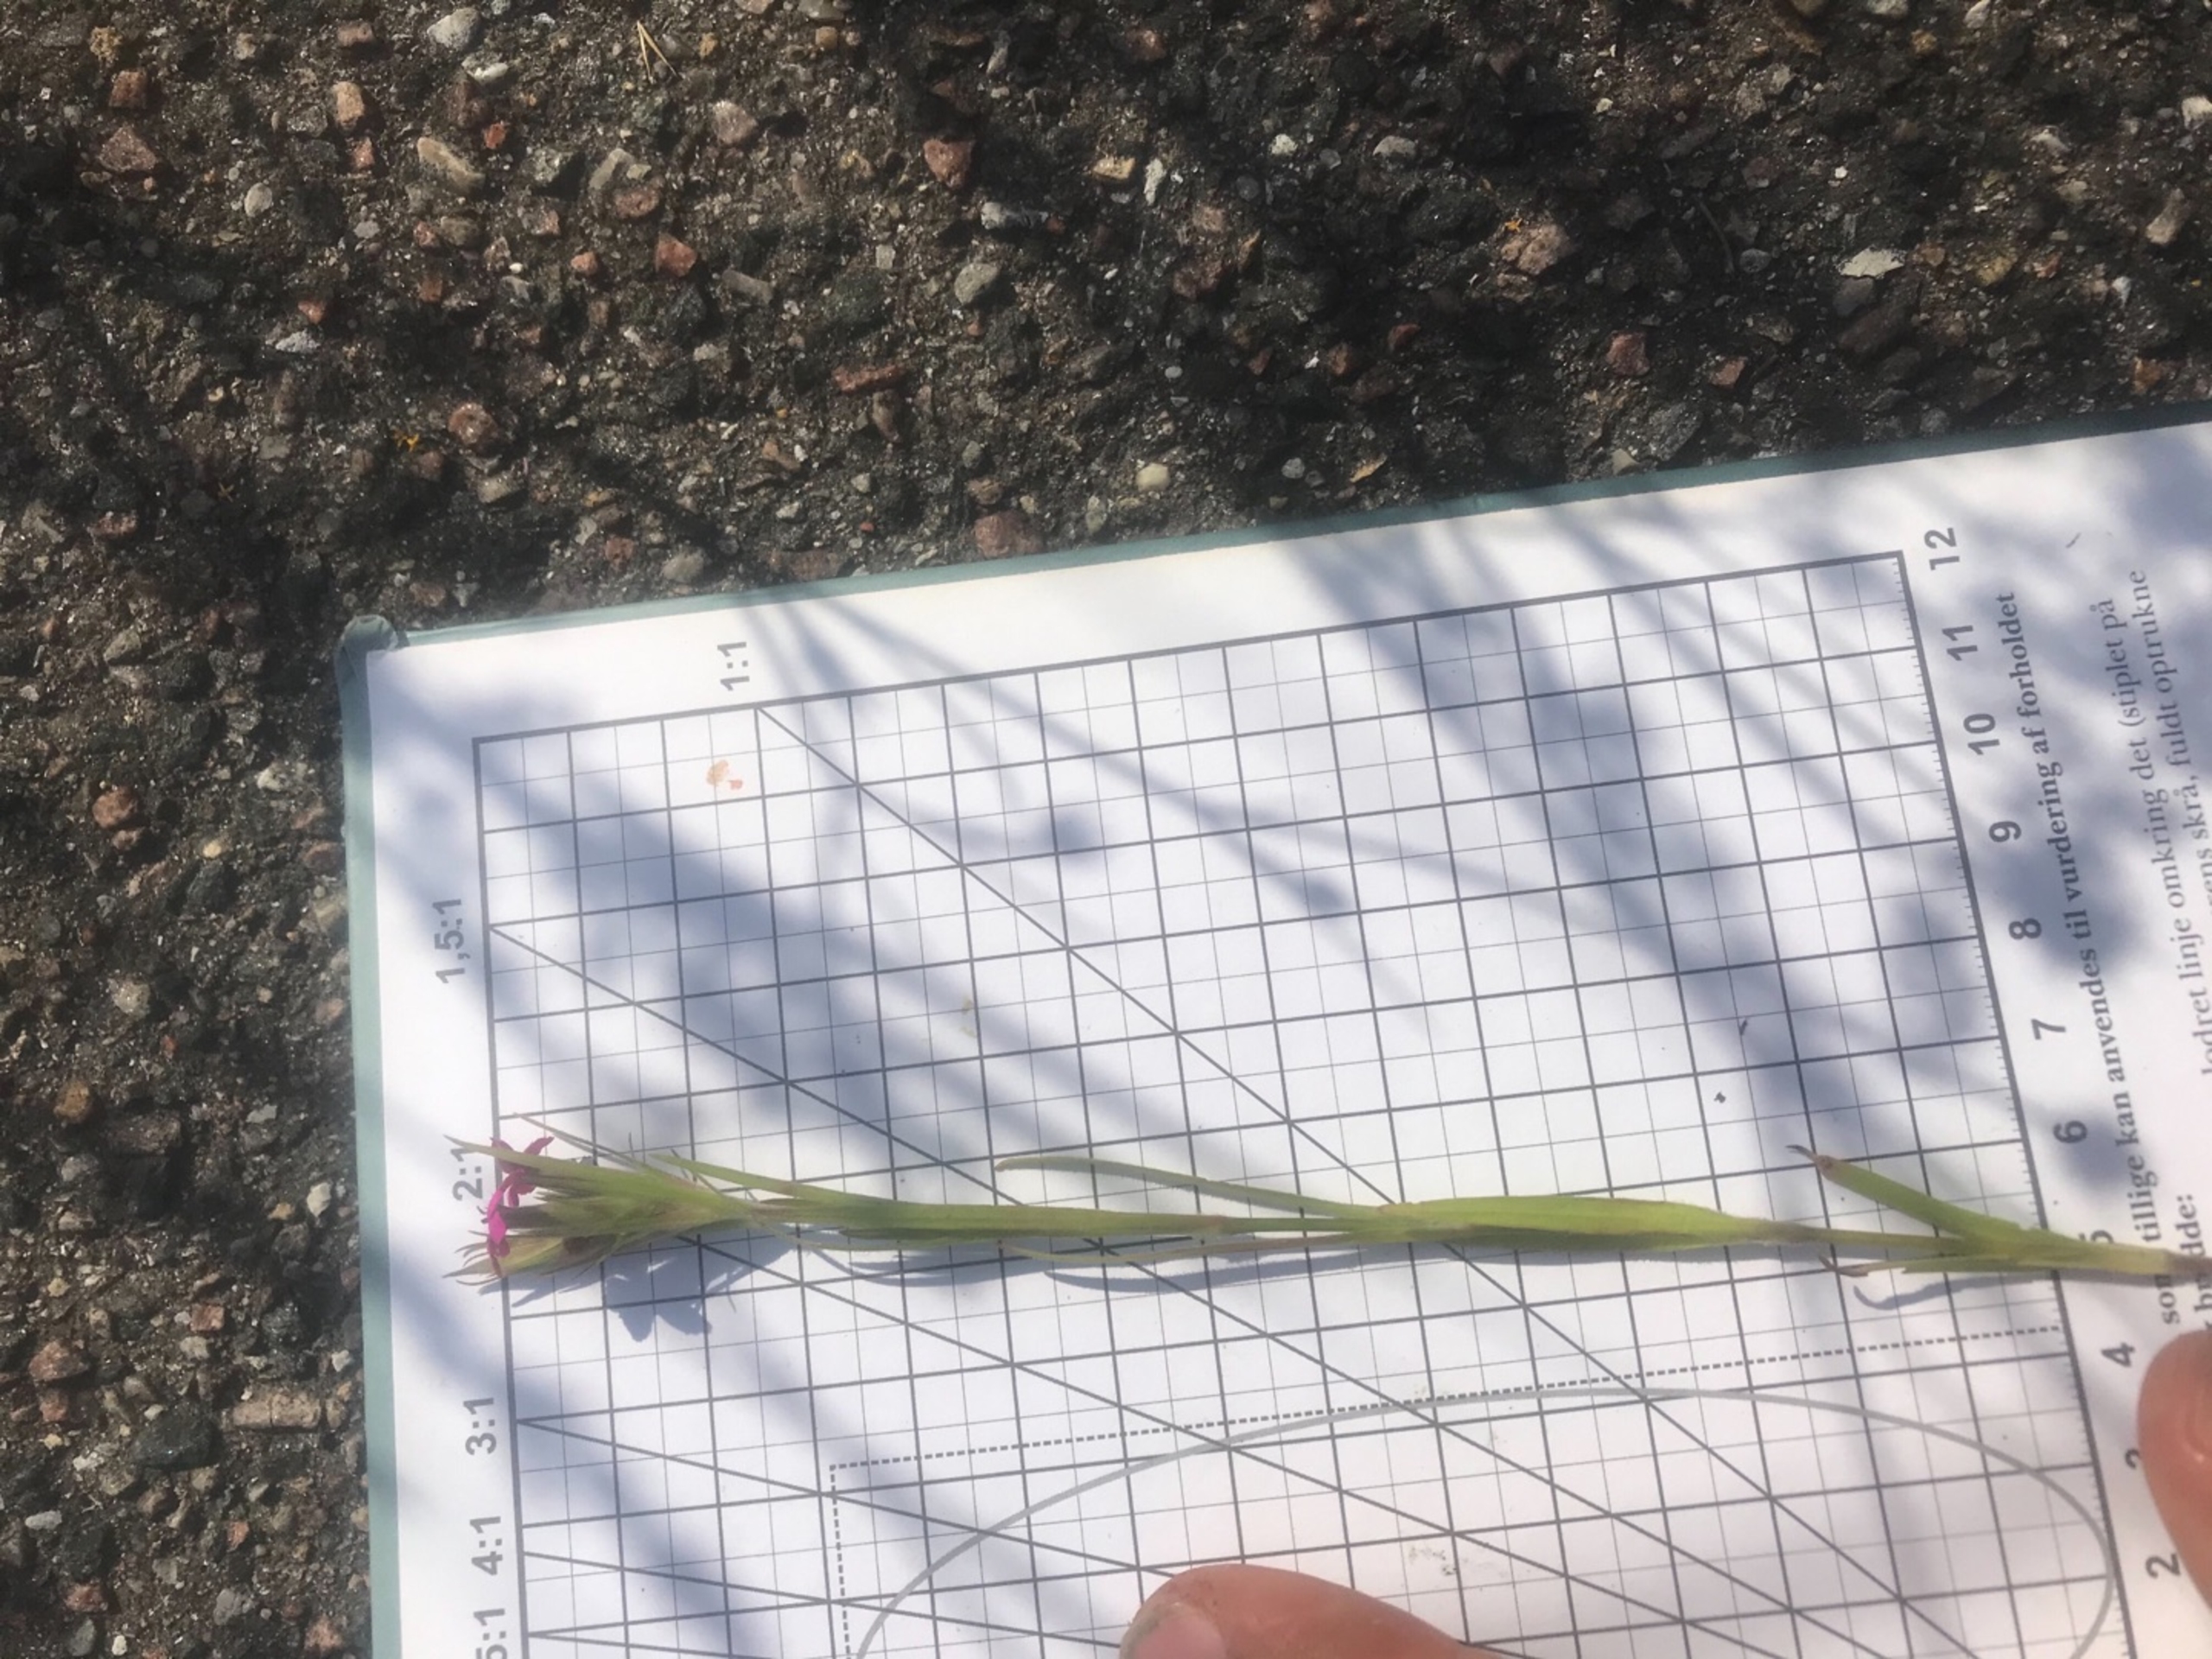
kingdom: Plantae
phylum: Tracheophyta
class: Magnoliopsida
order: Caryophyllales
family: Caryophyllaceae
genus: Dianthus
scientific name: Dianthus armeria
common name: Kost-nellike
